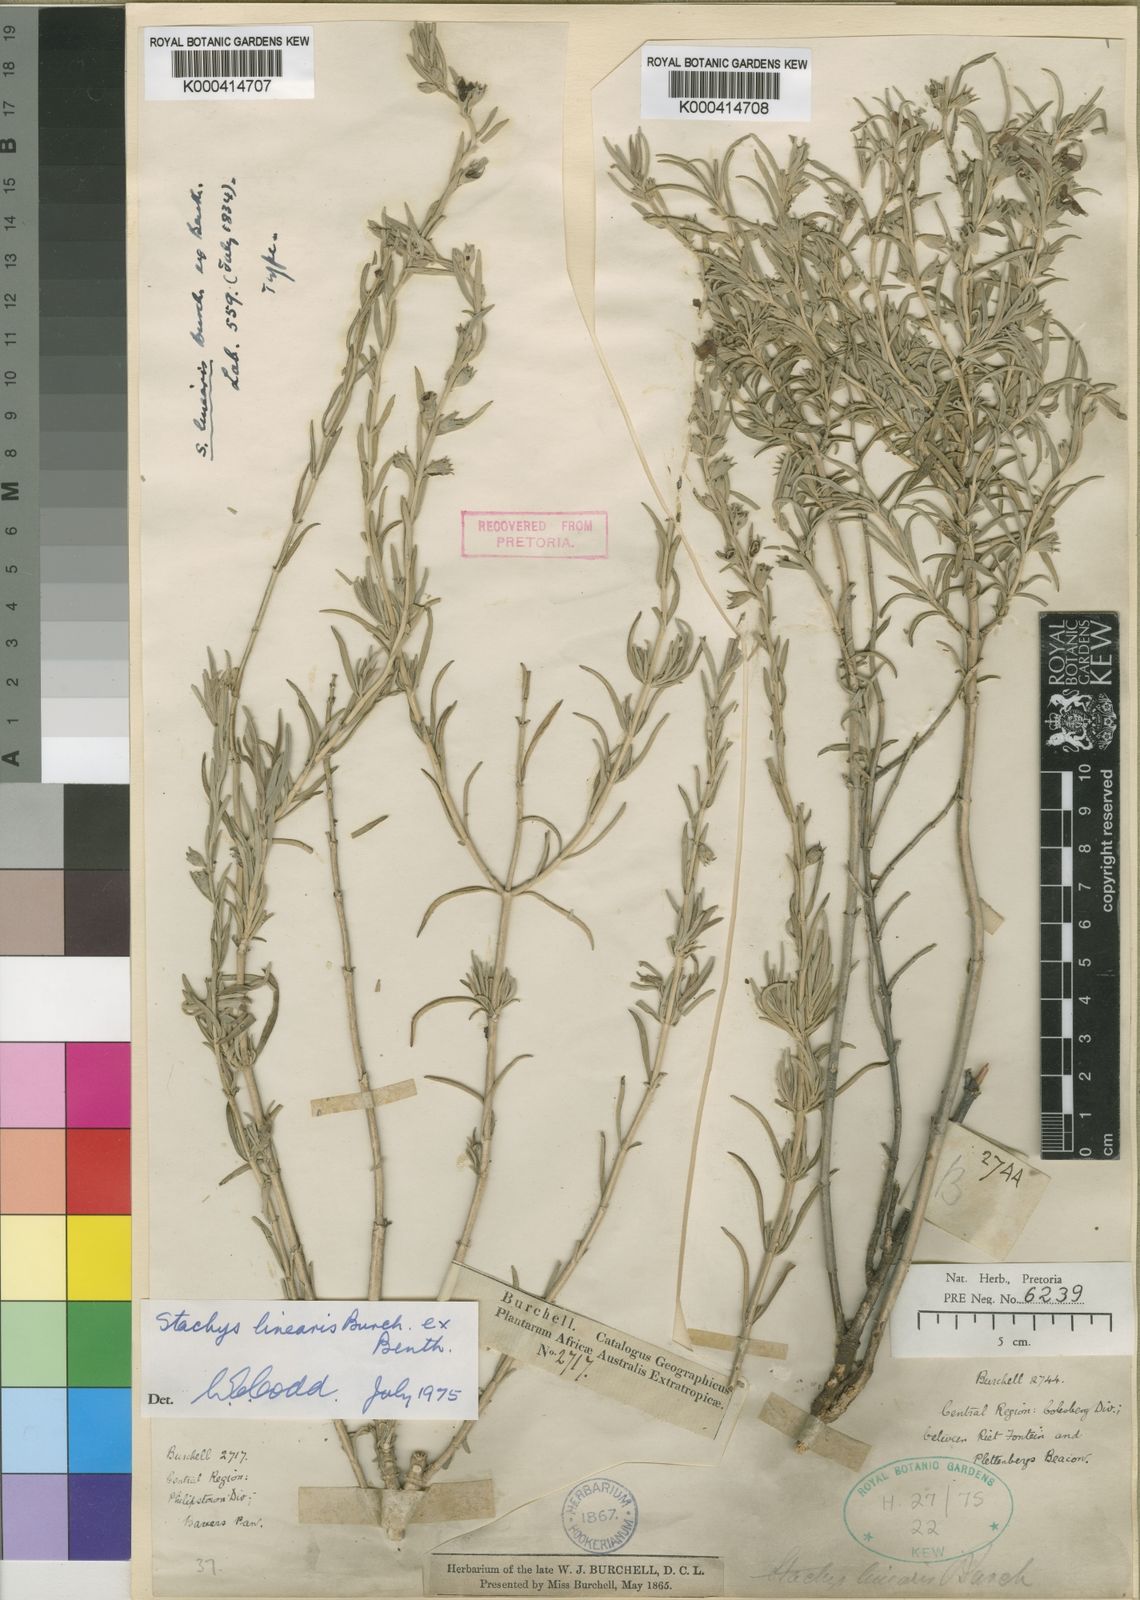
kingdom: Plantae
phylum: Tracheophyta
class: Magnoliopsida
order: Lamiales
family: Lamiaceae
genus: Stachys
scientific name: Stachys linearis
